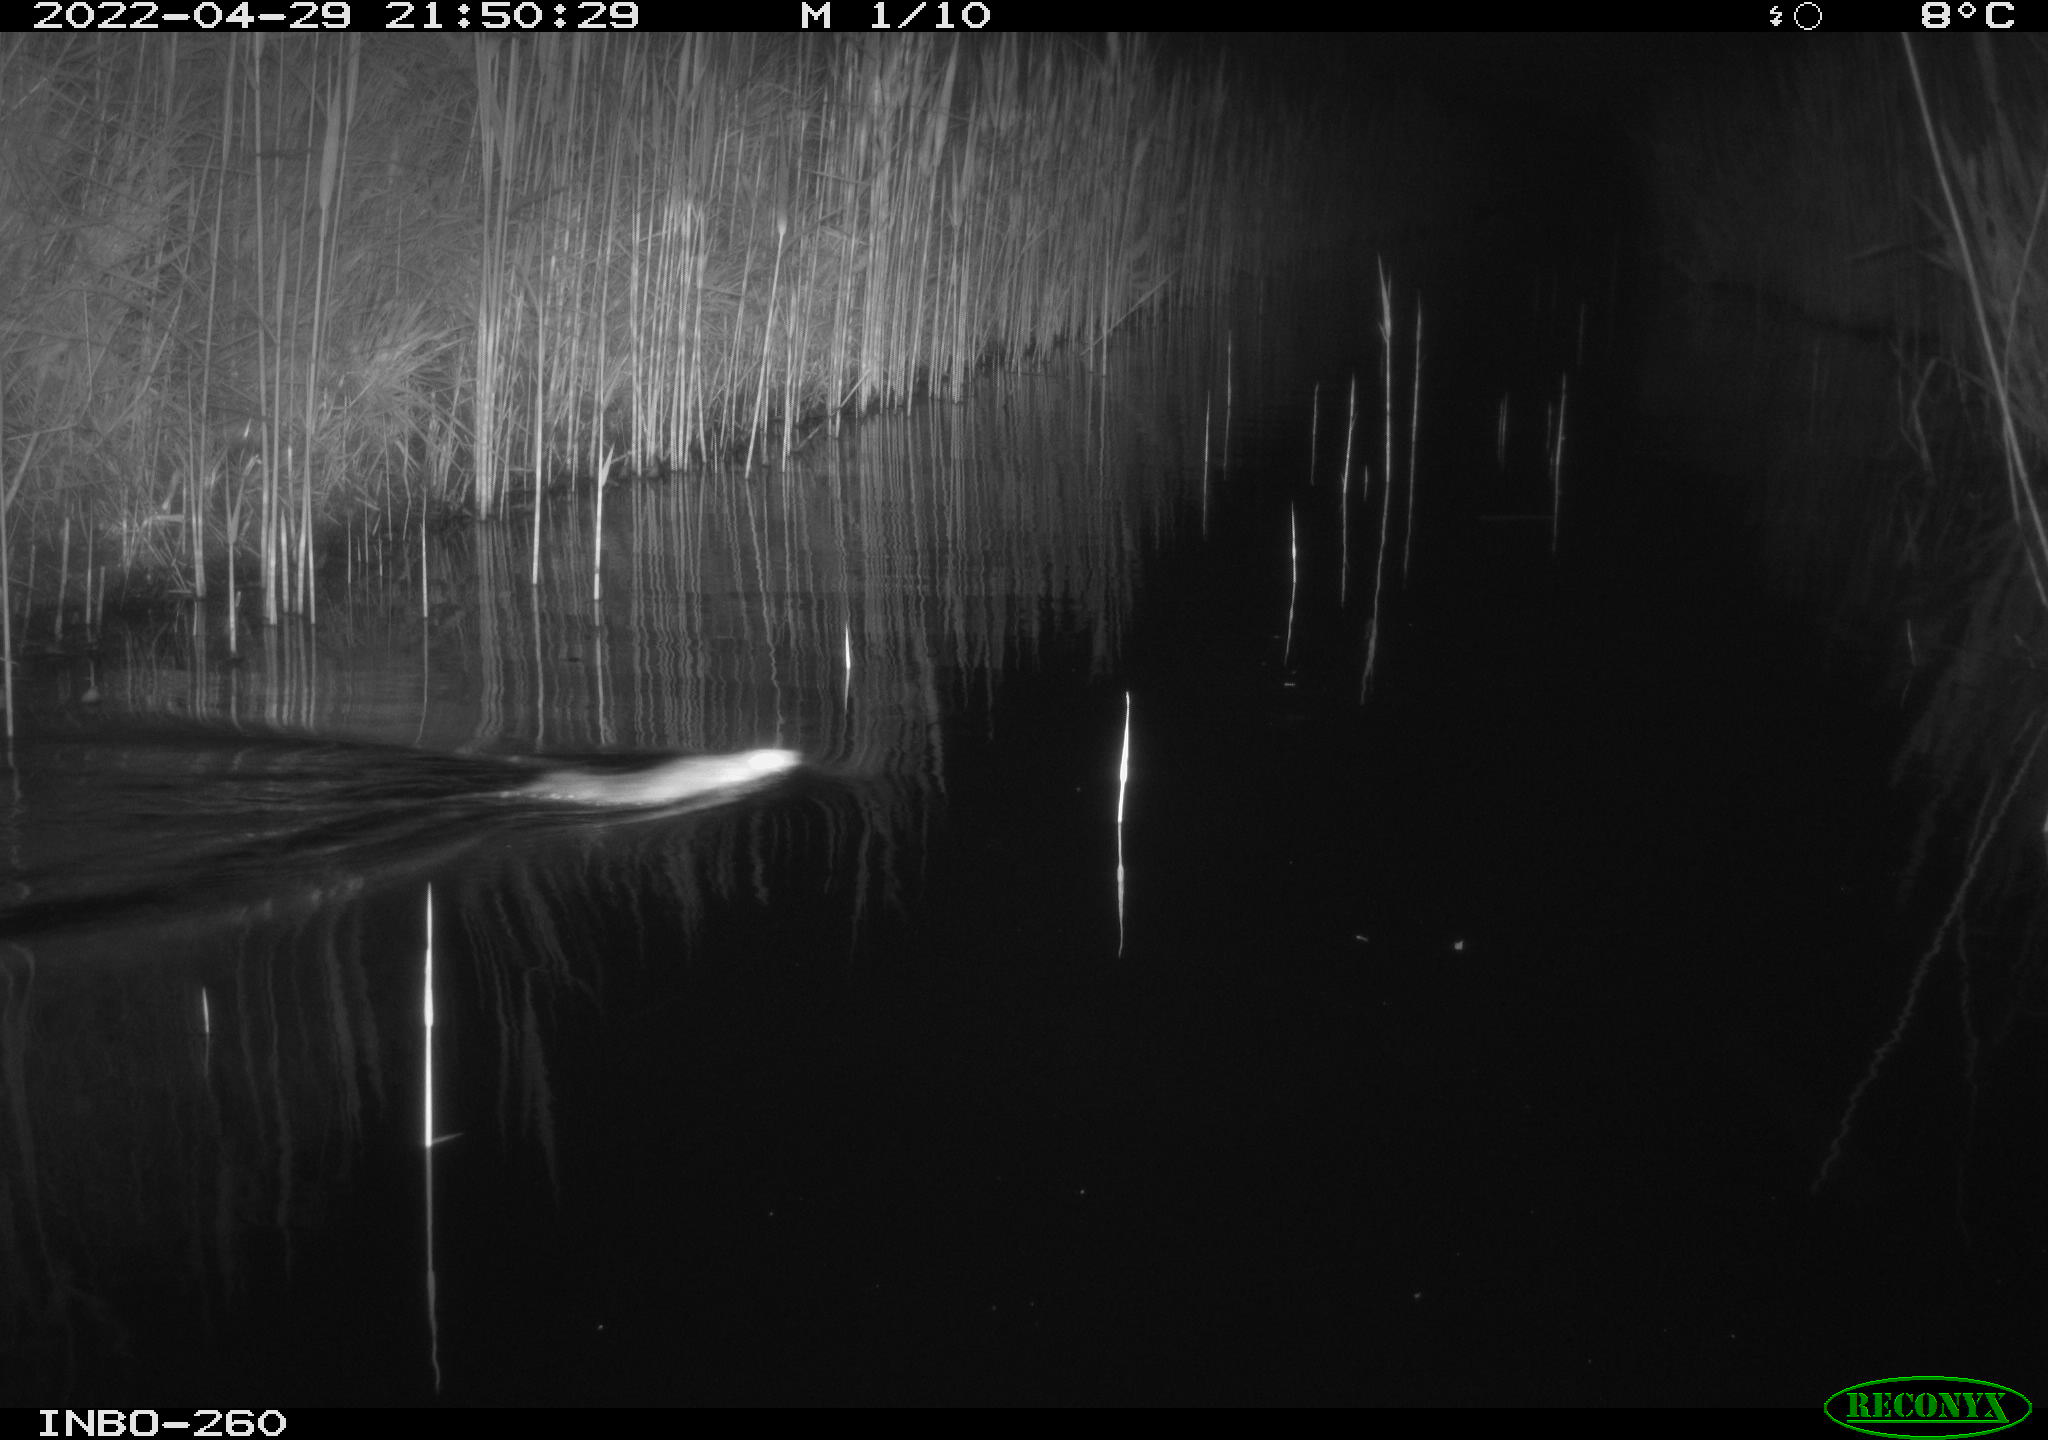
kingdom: Animalia
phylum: Chordata
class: Mammalia
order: Rodentia
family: Muridae
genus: Rattus
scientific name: Rattus norvegicus
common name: Brown rat
